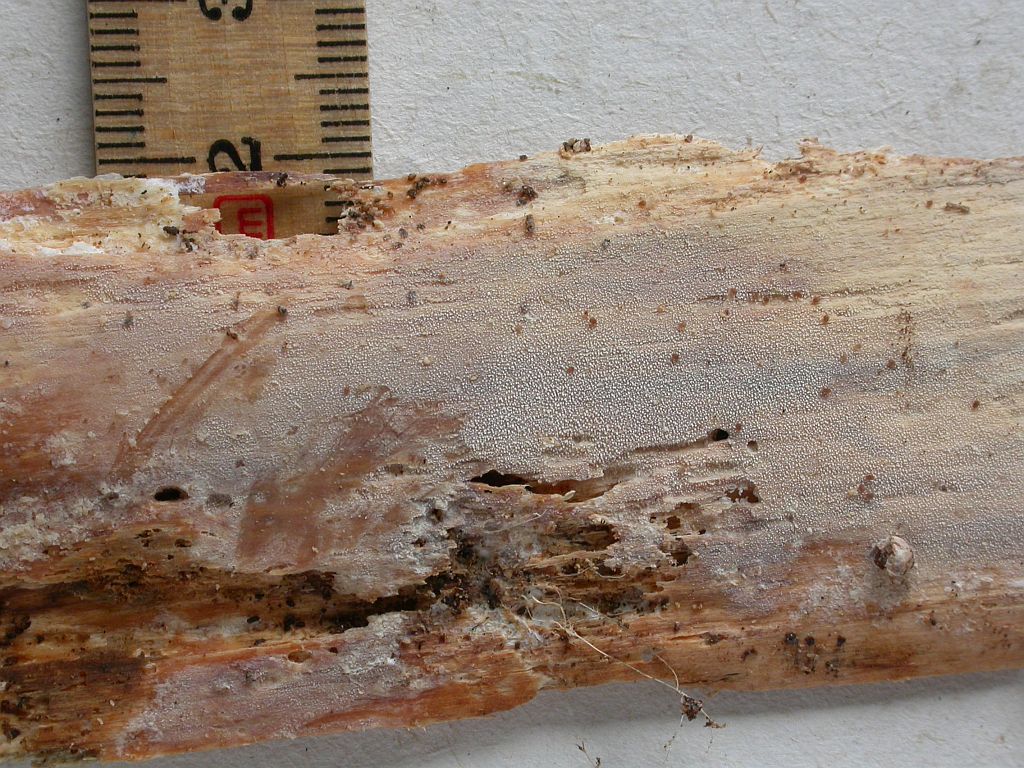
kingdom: Fungi
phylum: Basidiomycota
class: Agaricomycetes
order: Hymenochaetales
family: Rickenellaceae
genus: Resinicium
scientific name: Resinicium bicolor
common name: almindelig vokstand
